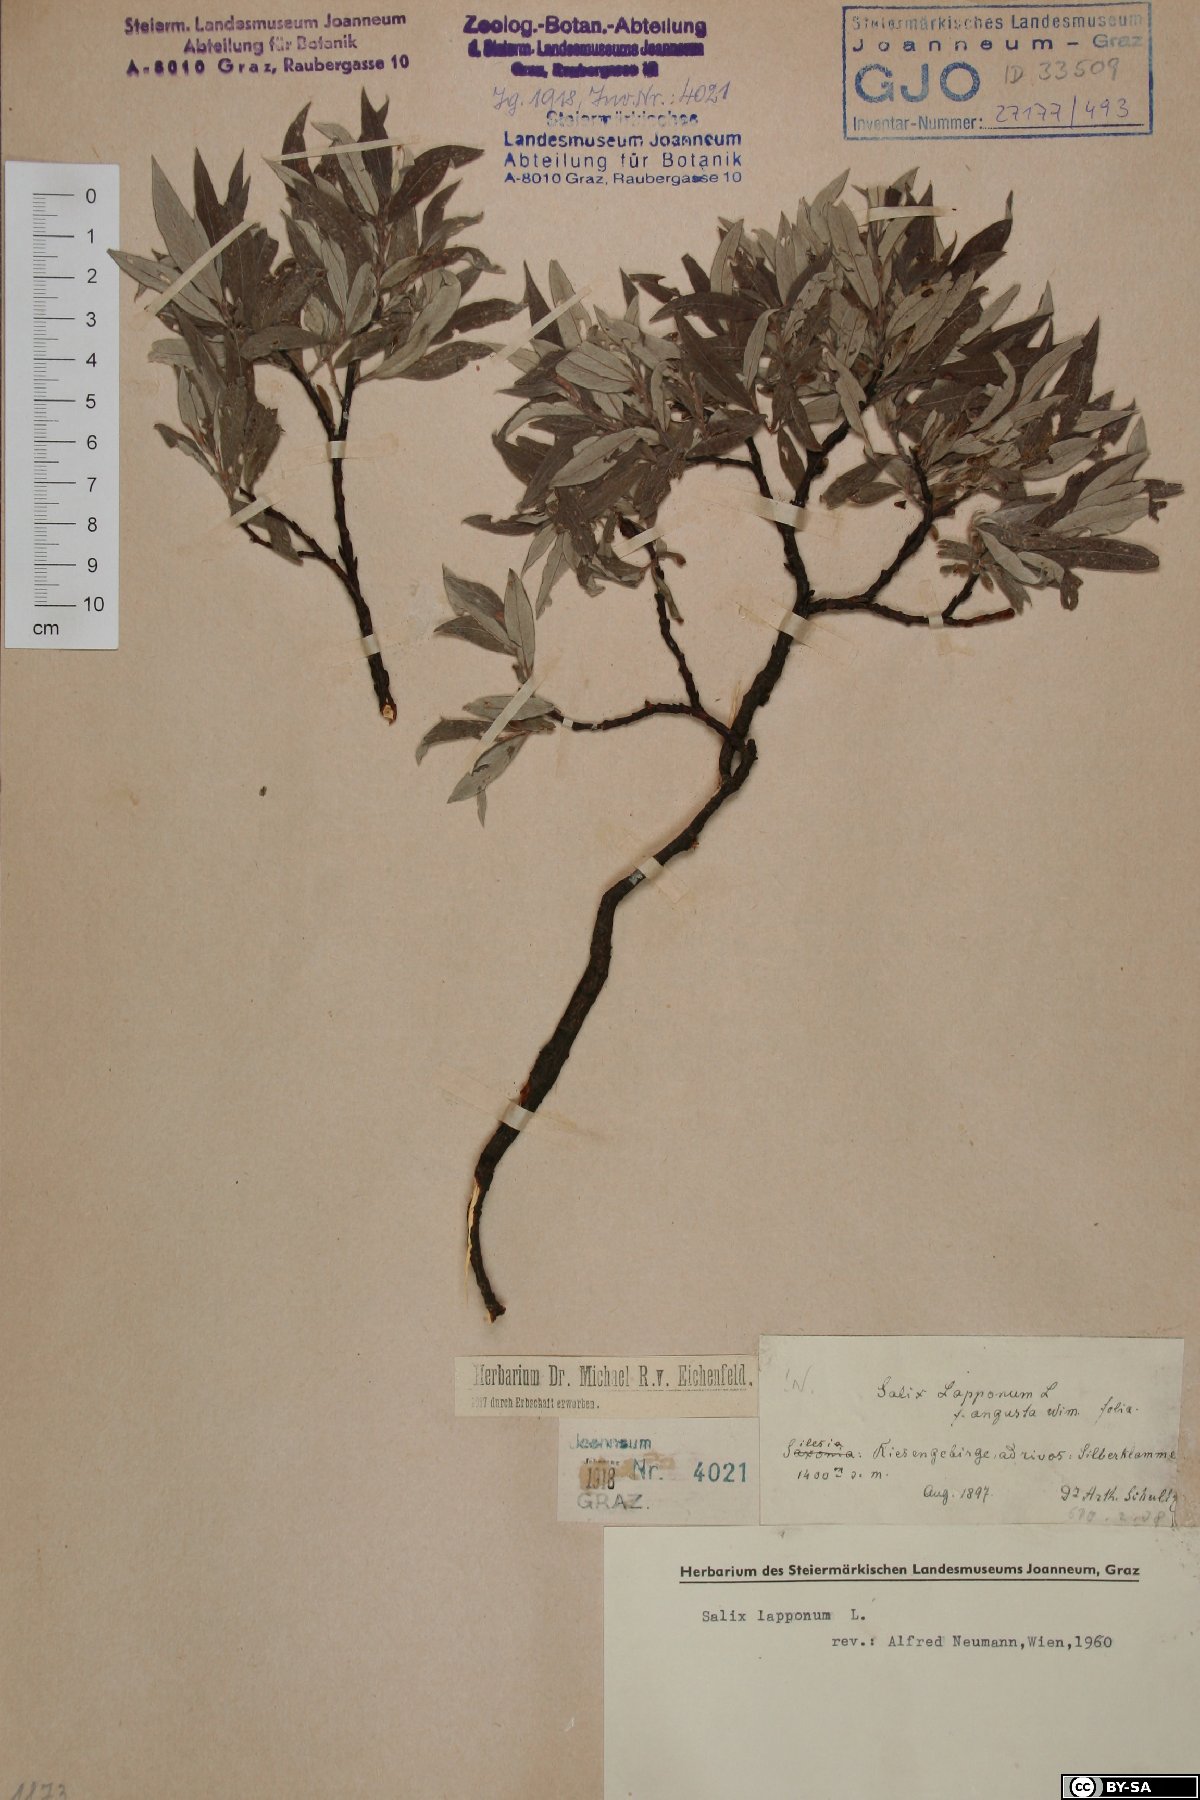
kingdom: Plantae
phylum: Tracheophyta
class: Magnoliopsida
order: Malpighiales
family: Salicaceae
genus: Salix
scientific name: Salix lapponum
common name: Downy willow
